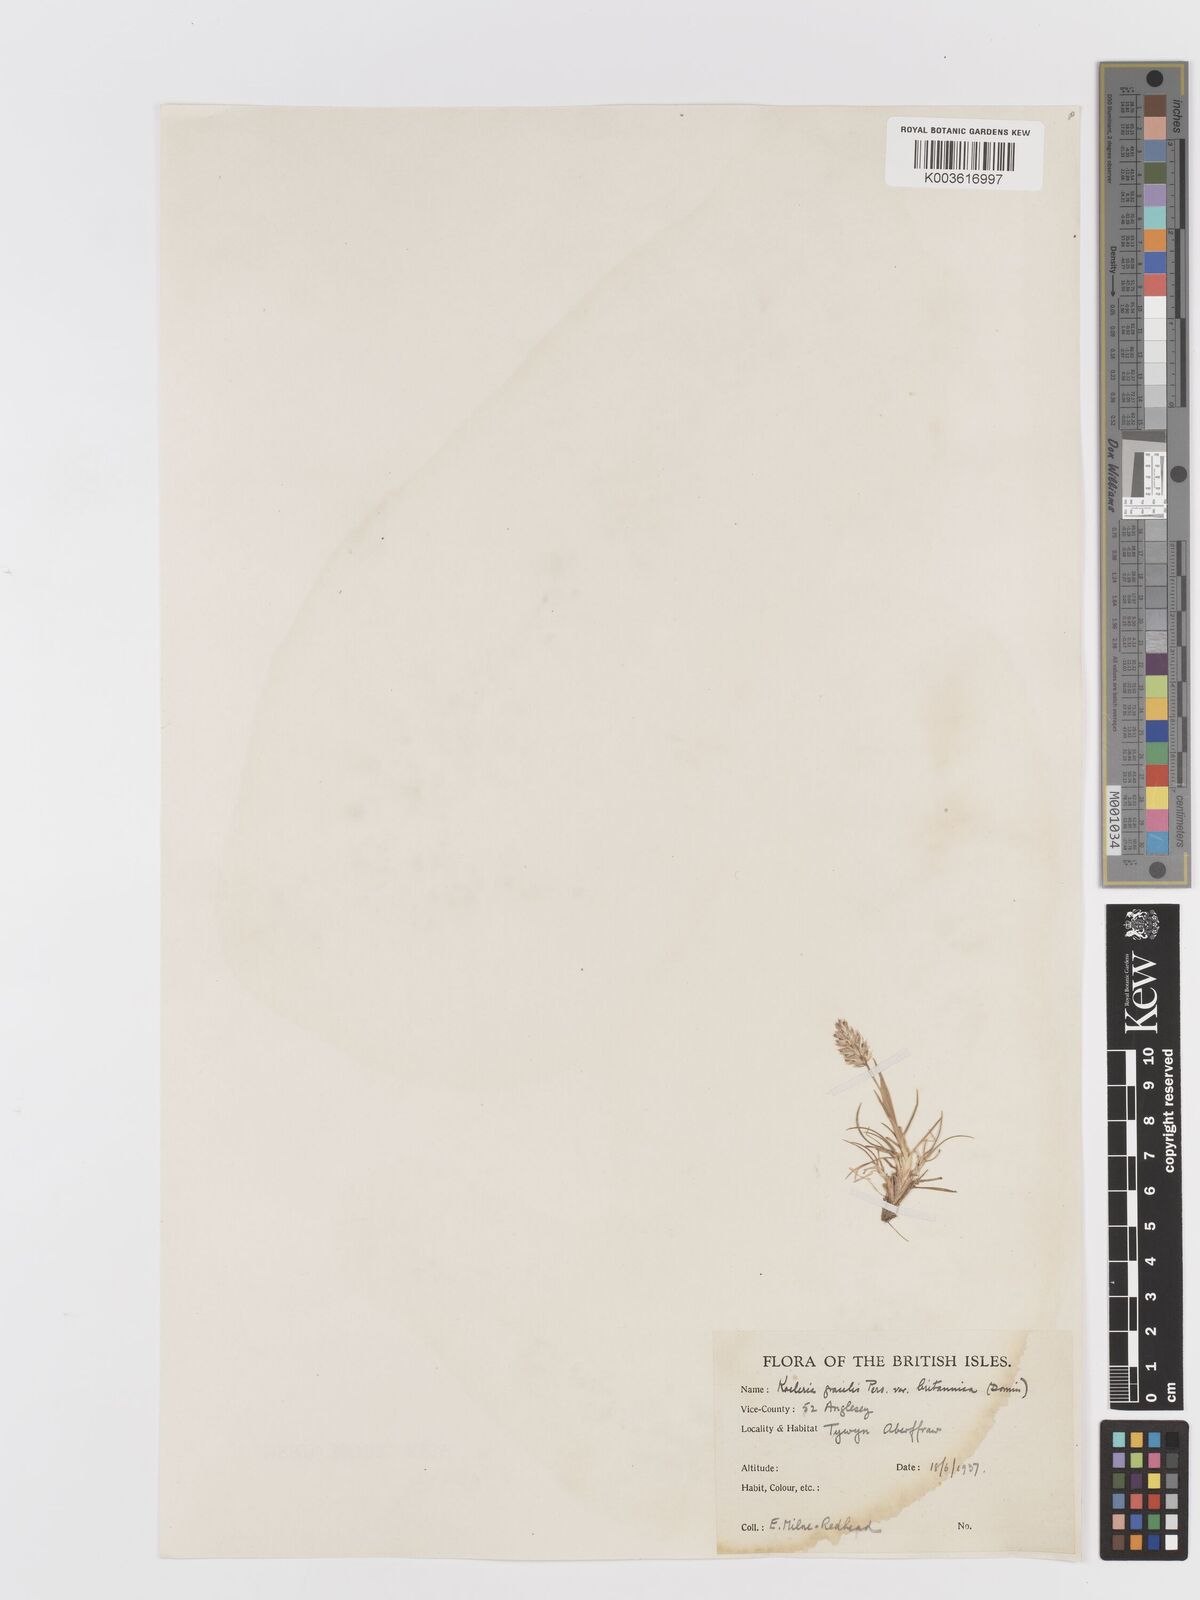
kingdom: Plantae
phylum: Tracheophyta
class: Liliopsida
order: Poales
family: Poaceae
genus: Koeleria
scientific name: Koeleria macrantha
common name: Crested hair-grass
